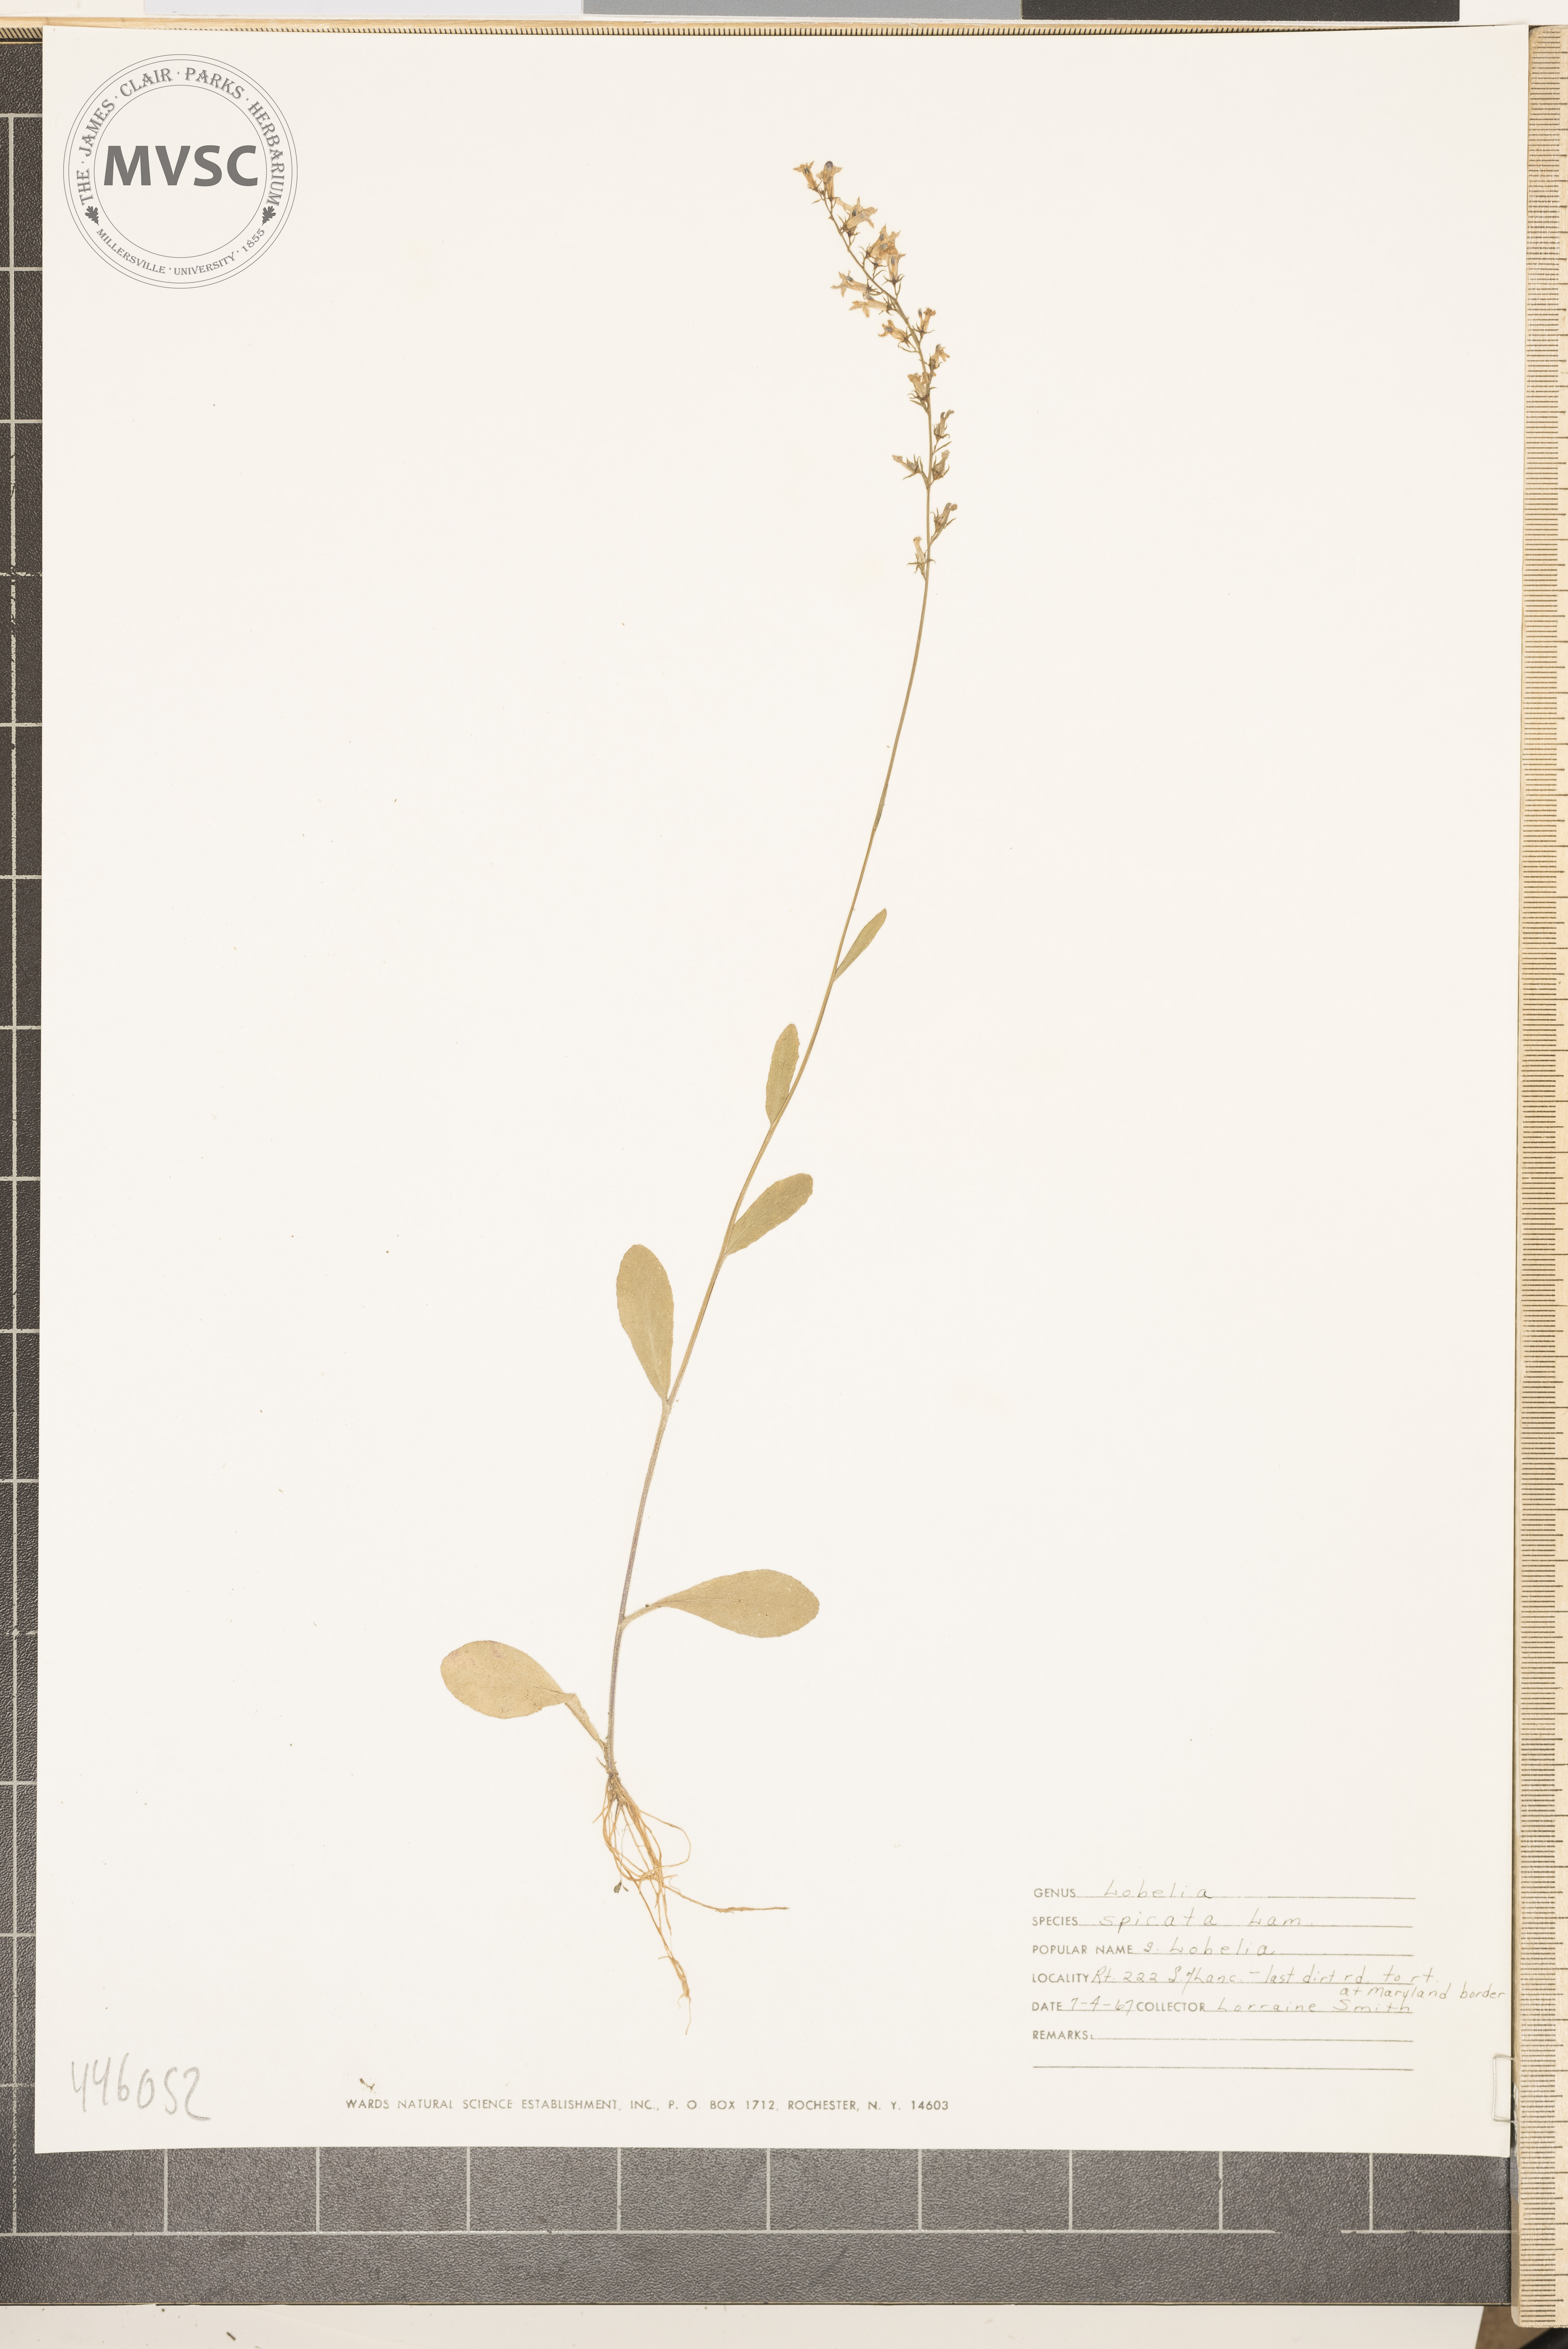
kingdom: Plantae
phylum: Tracheophyta
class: Magnoliopsida
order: Asterales
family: Campanulaceae
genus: Lobelia
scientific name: Lobelia spicata
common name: Pale-spike lobelia
